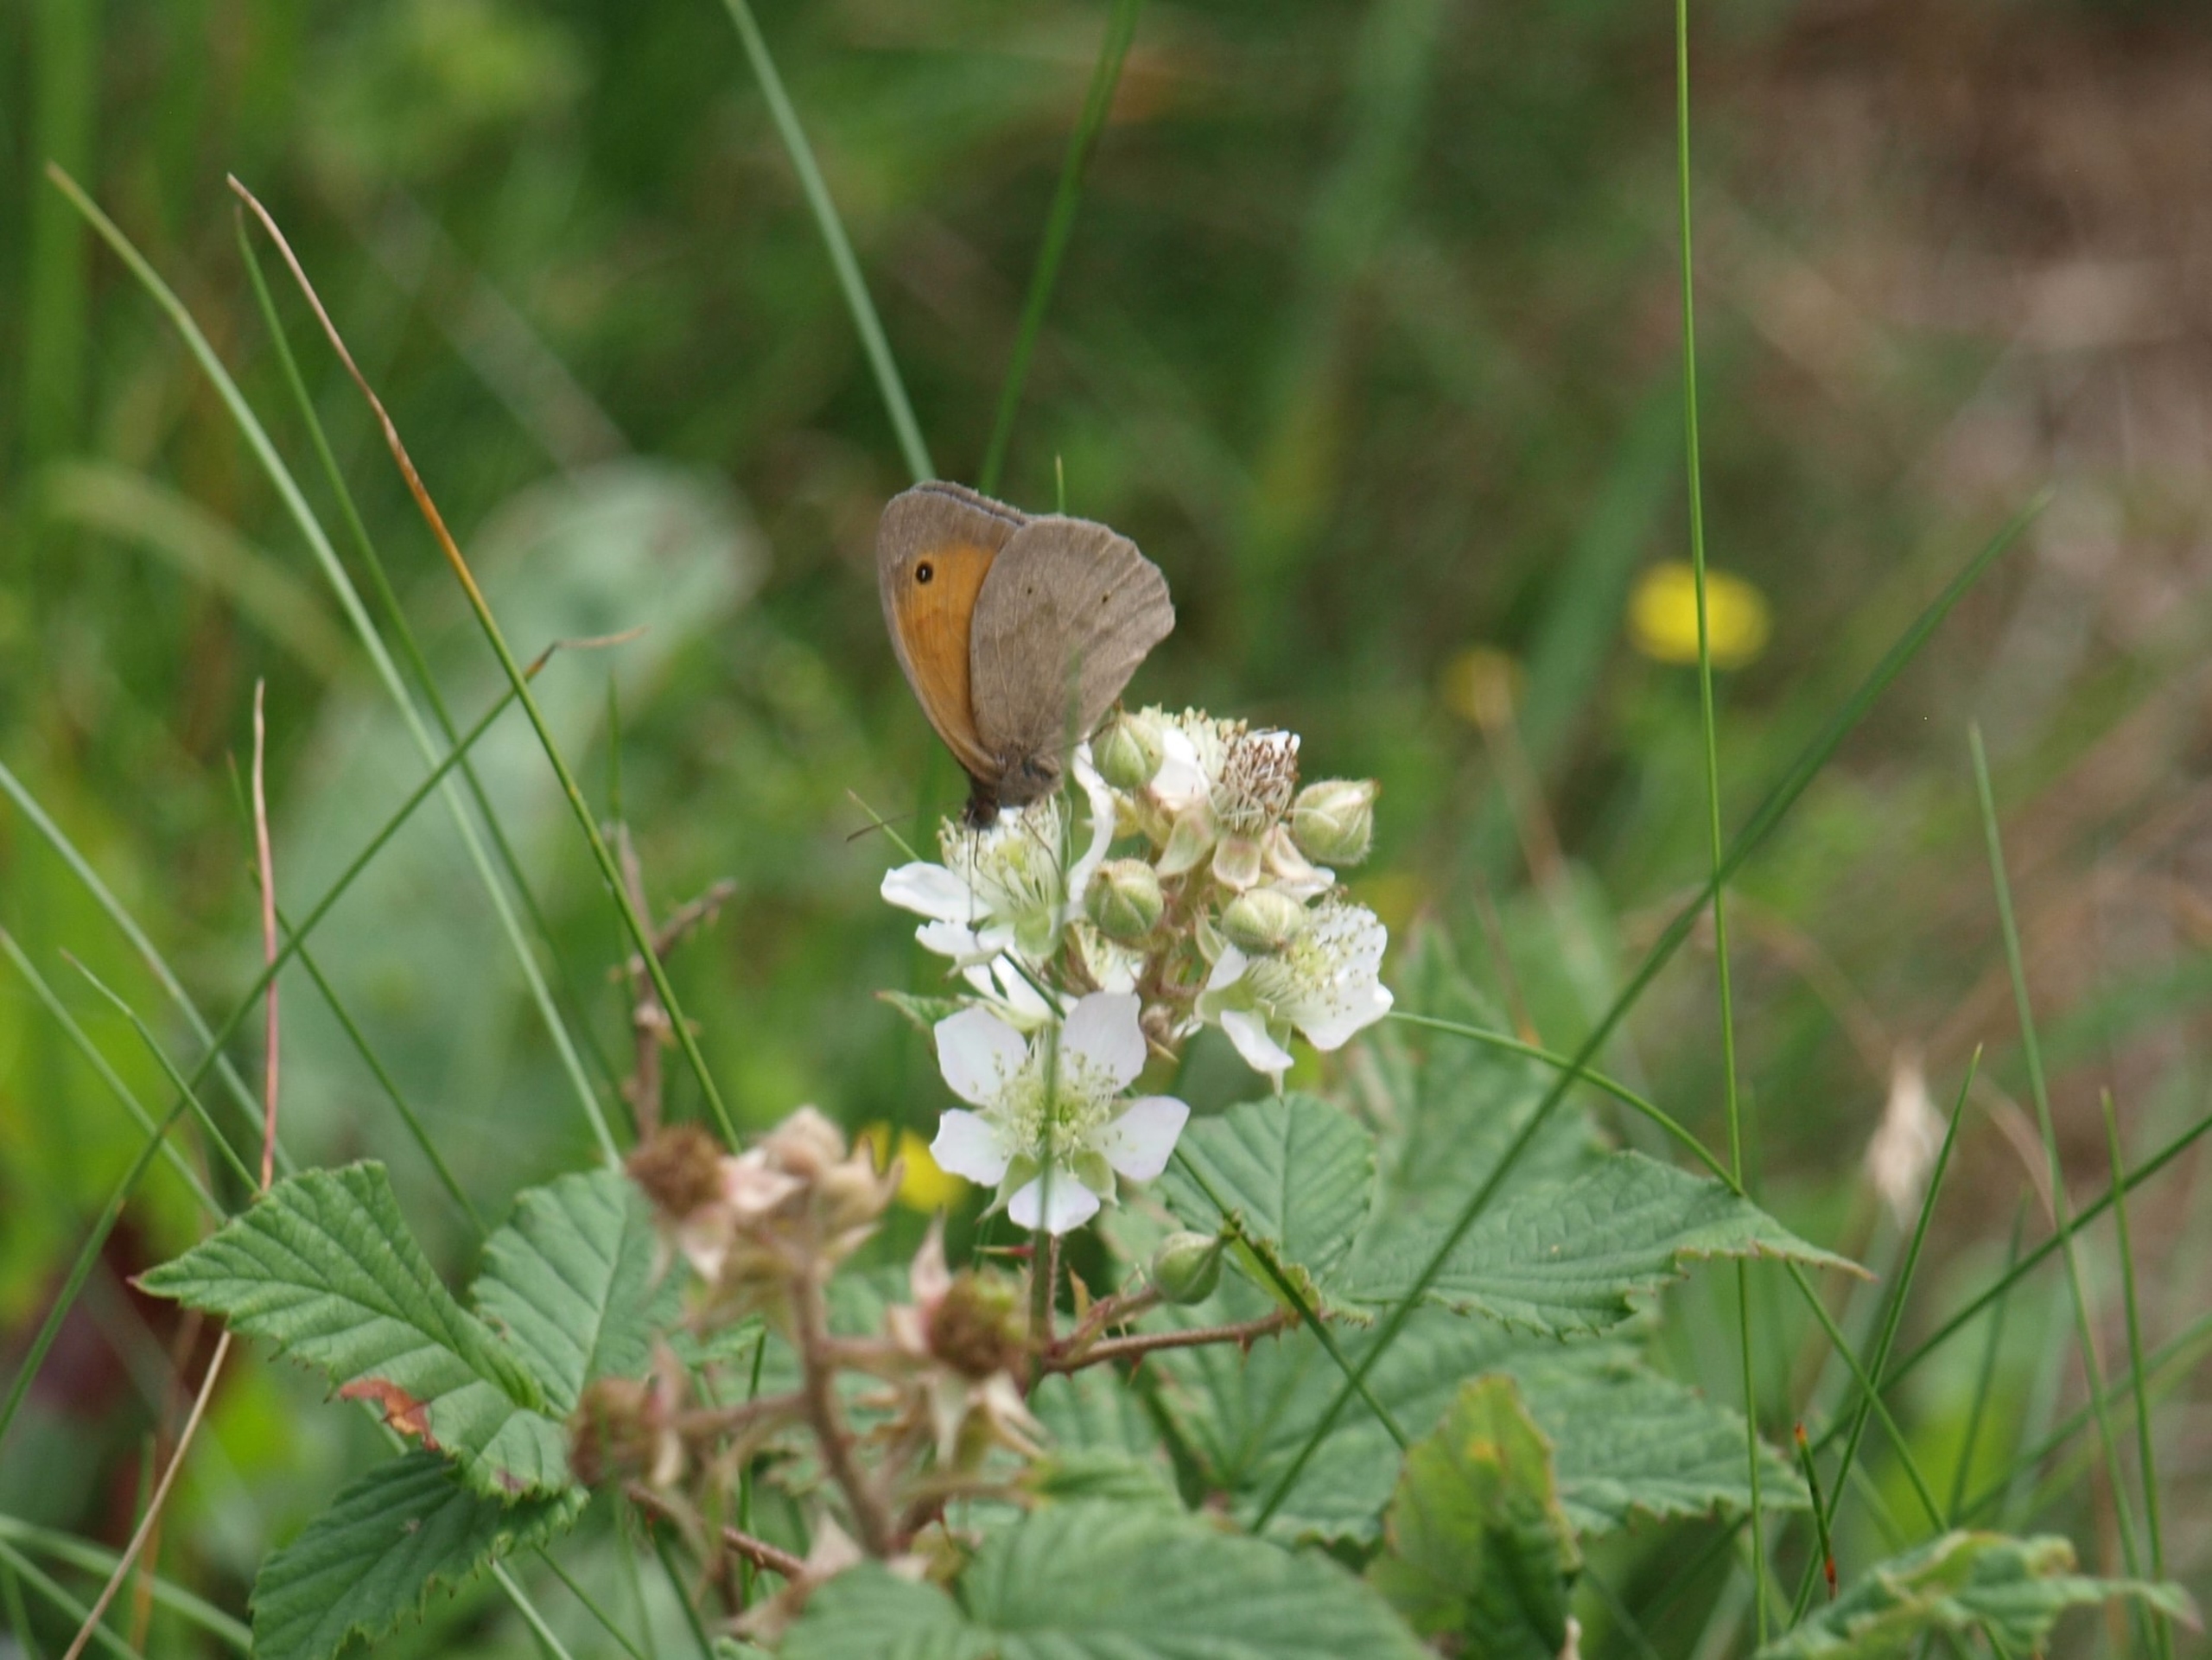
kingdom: Animalia
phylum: Arthropoda
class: Insecta
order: Lepidoptera
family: Nymphalidae
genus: Maniola
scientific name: Maniola jurtina
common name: Græsrandøje
